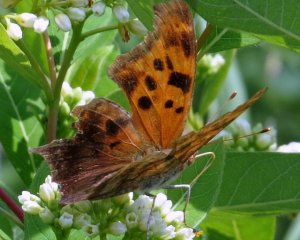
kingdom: Animalia
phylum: Arthropoda
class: Insecta
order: Lepidoptera
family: Nymphalidae
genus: Polygonia
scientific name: Polygonia interrogationis
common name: Question Mark
